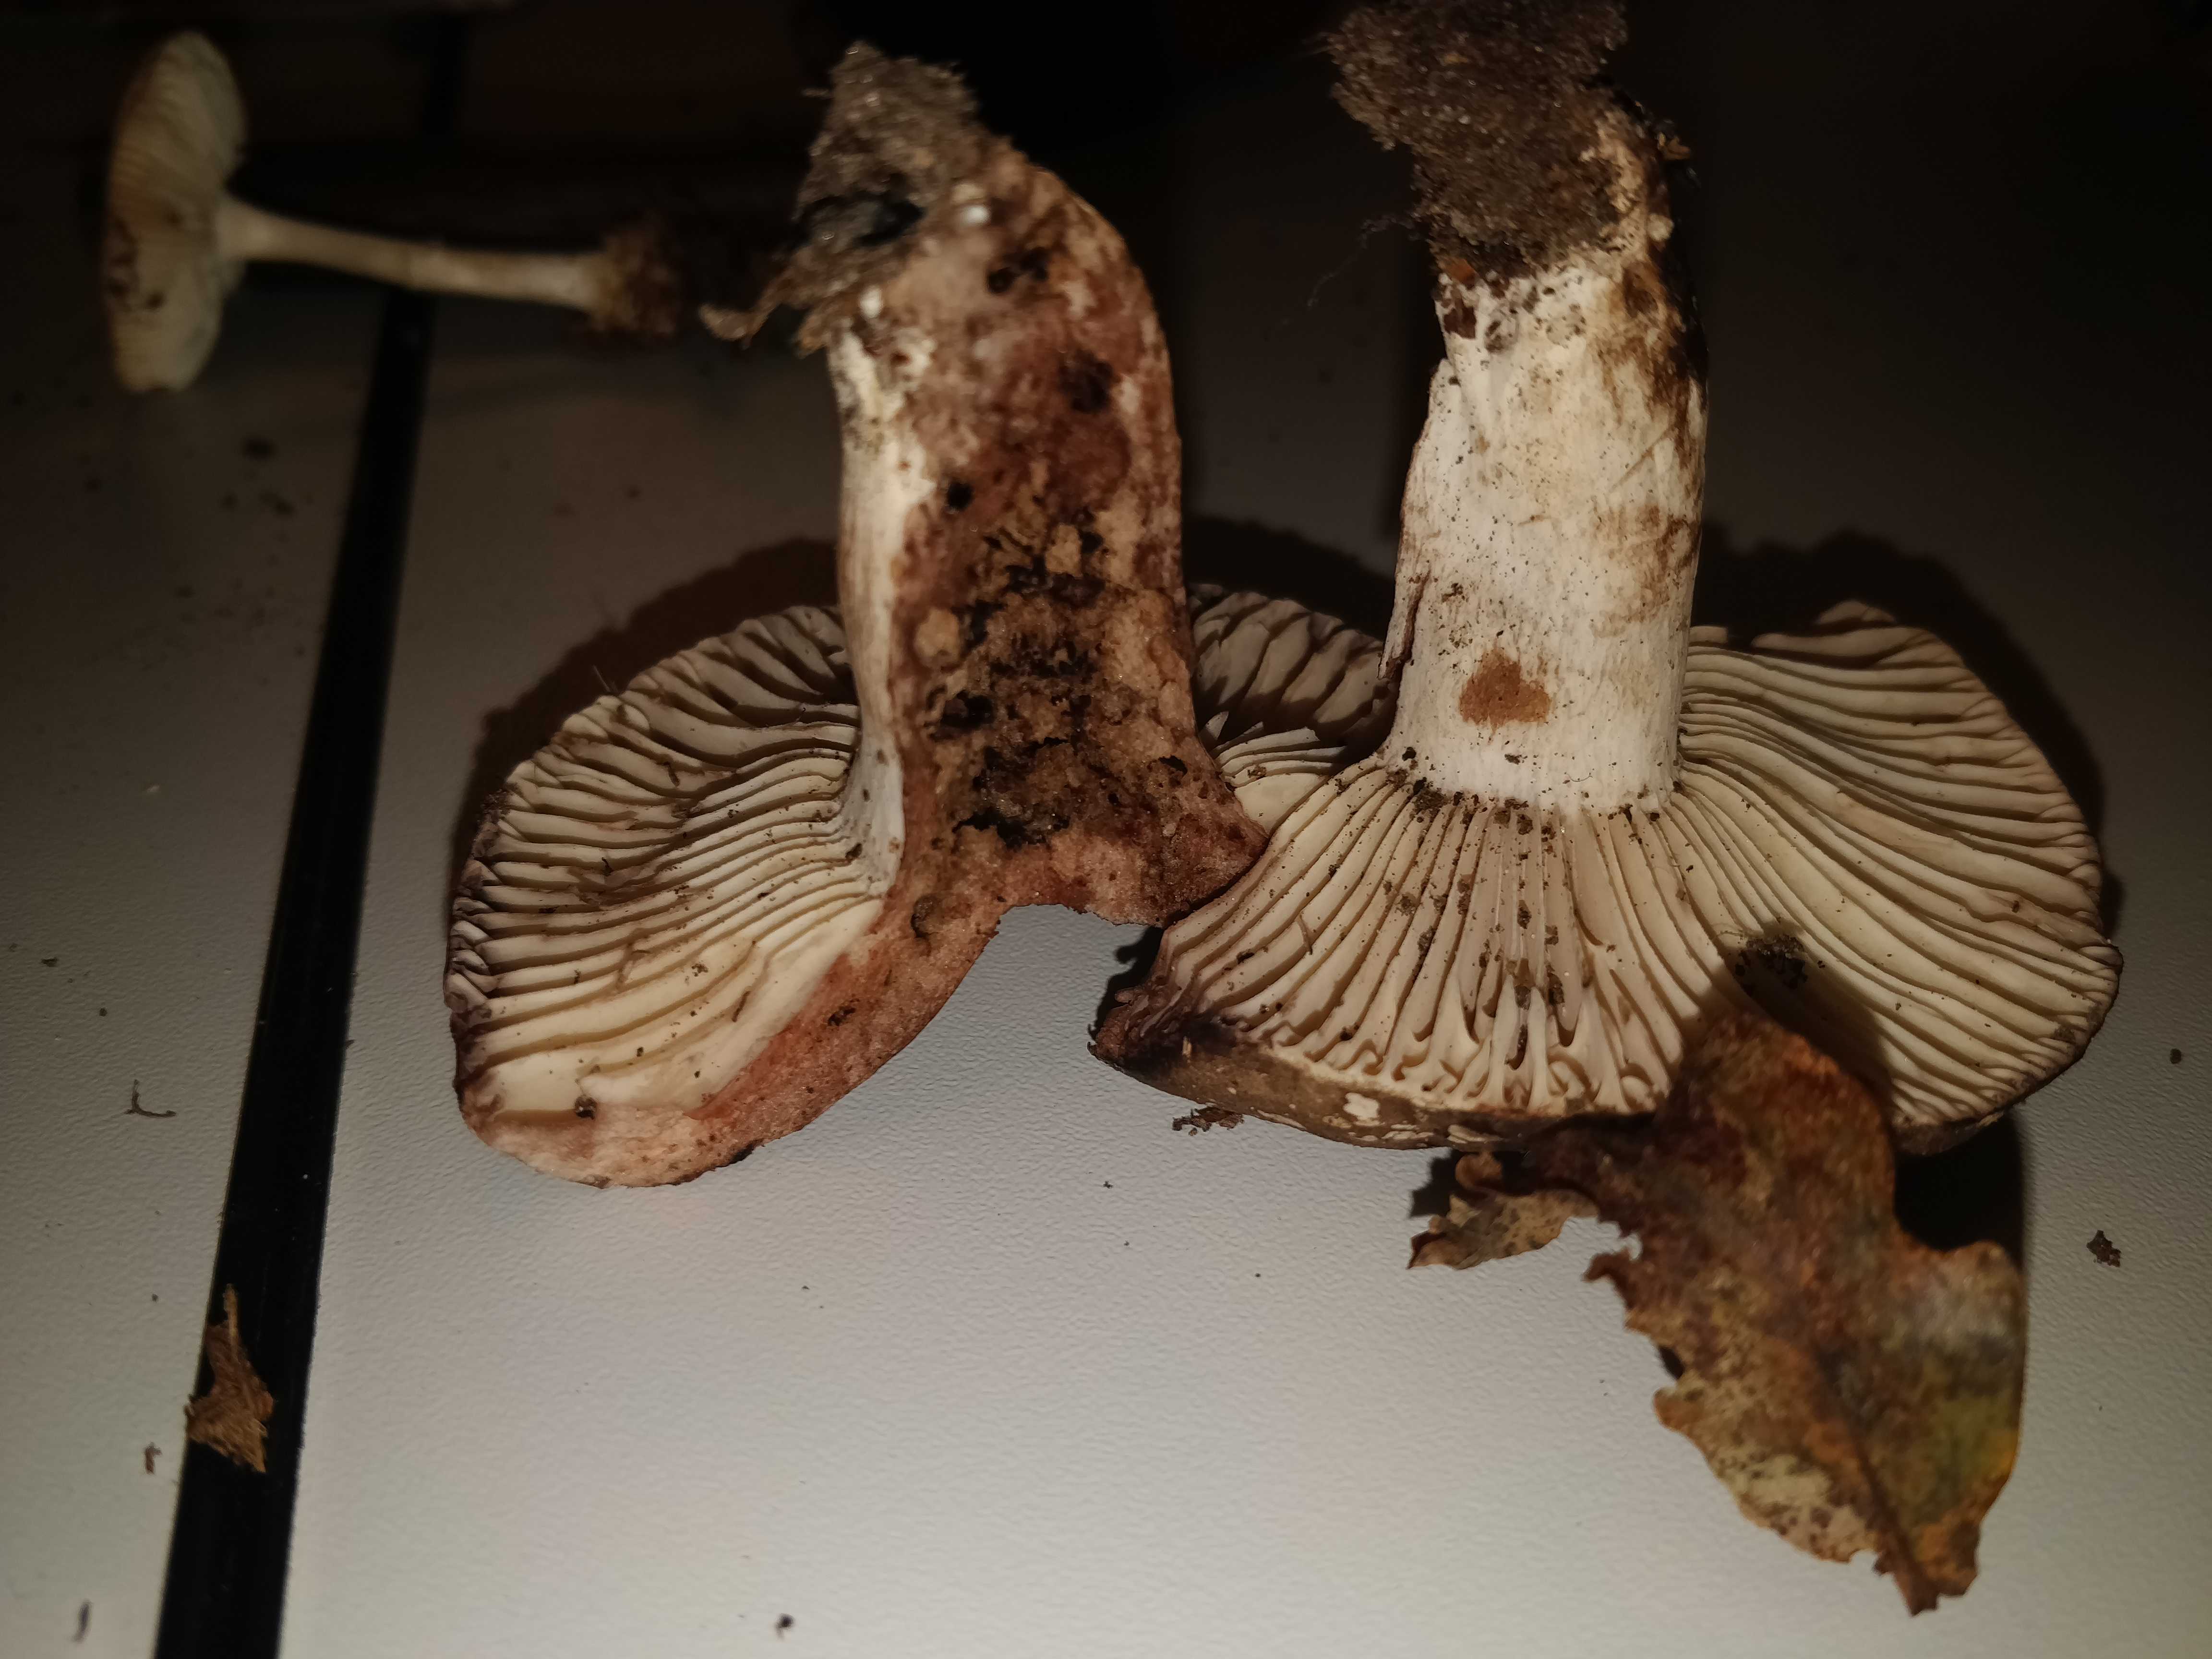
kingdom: Fungi
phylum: Basidiomycota
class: Agaricomycetes
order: Russulales
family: Russulaceae
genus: Russula
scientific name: Russula adusta
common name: sværtende skørhat
